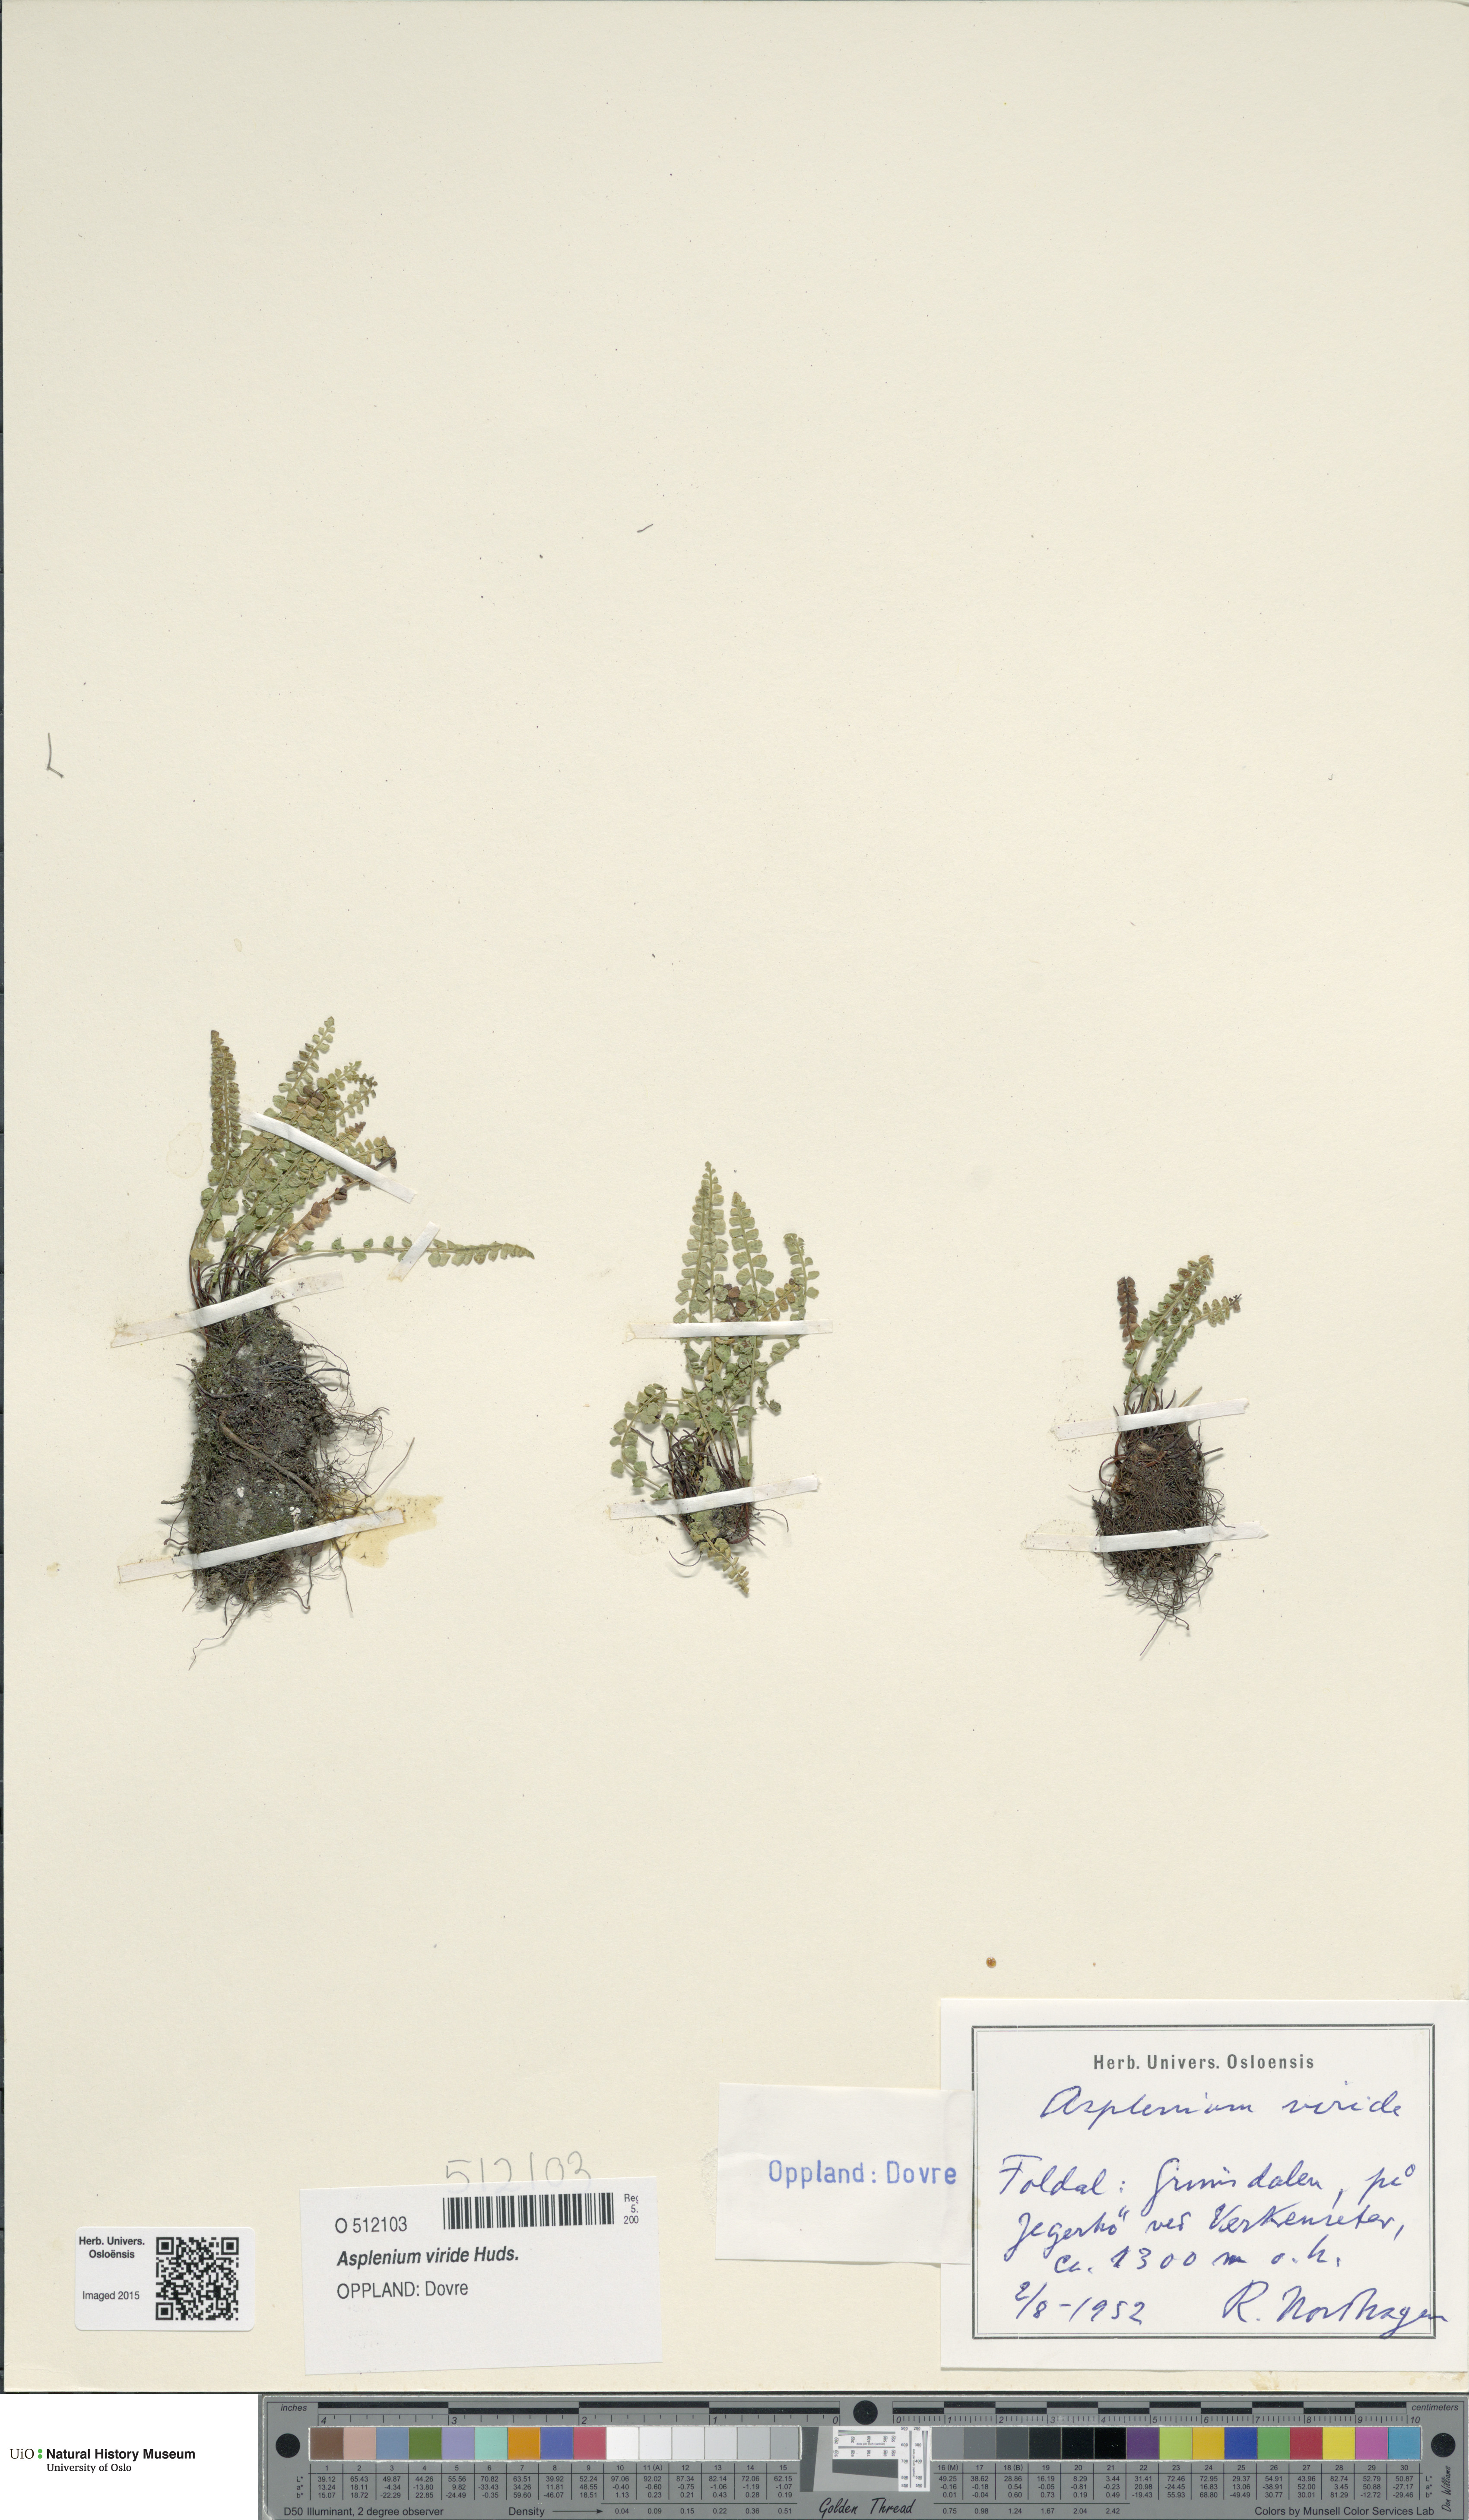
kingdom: Plantae
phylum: Tracheophyta
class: Polypodiopsida
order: Polypodiales
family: Aspleniaceae
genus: Asplenium
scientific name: Asplenium viride
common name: Green spleenwort
